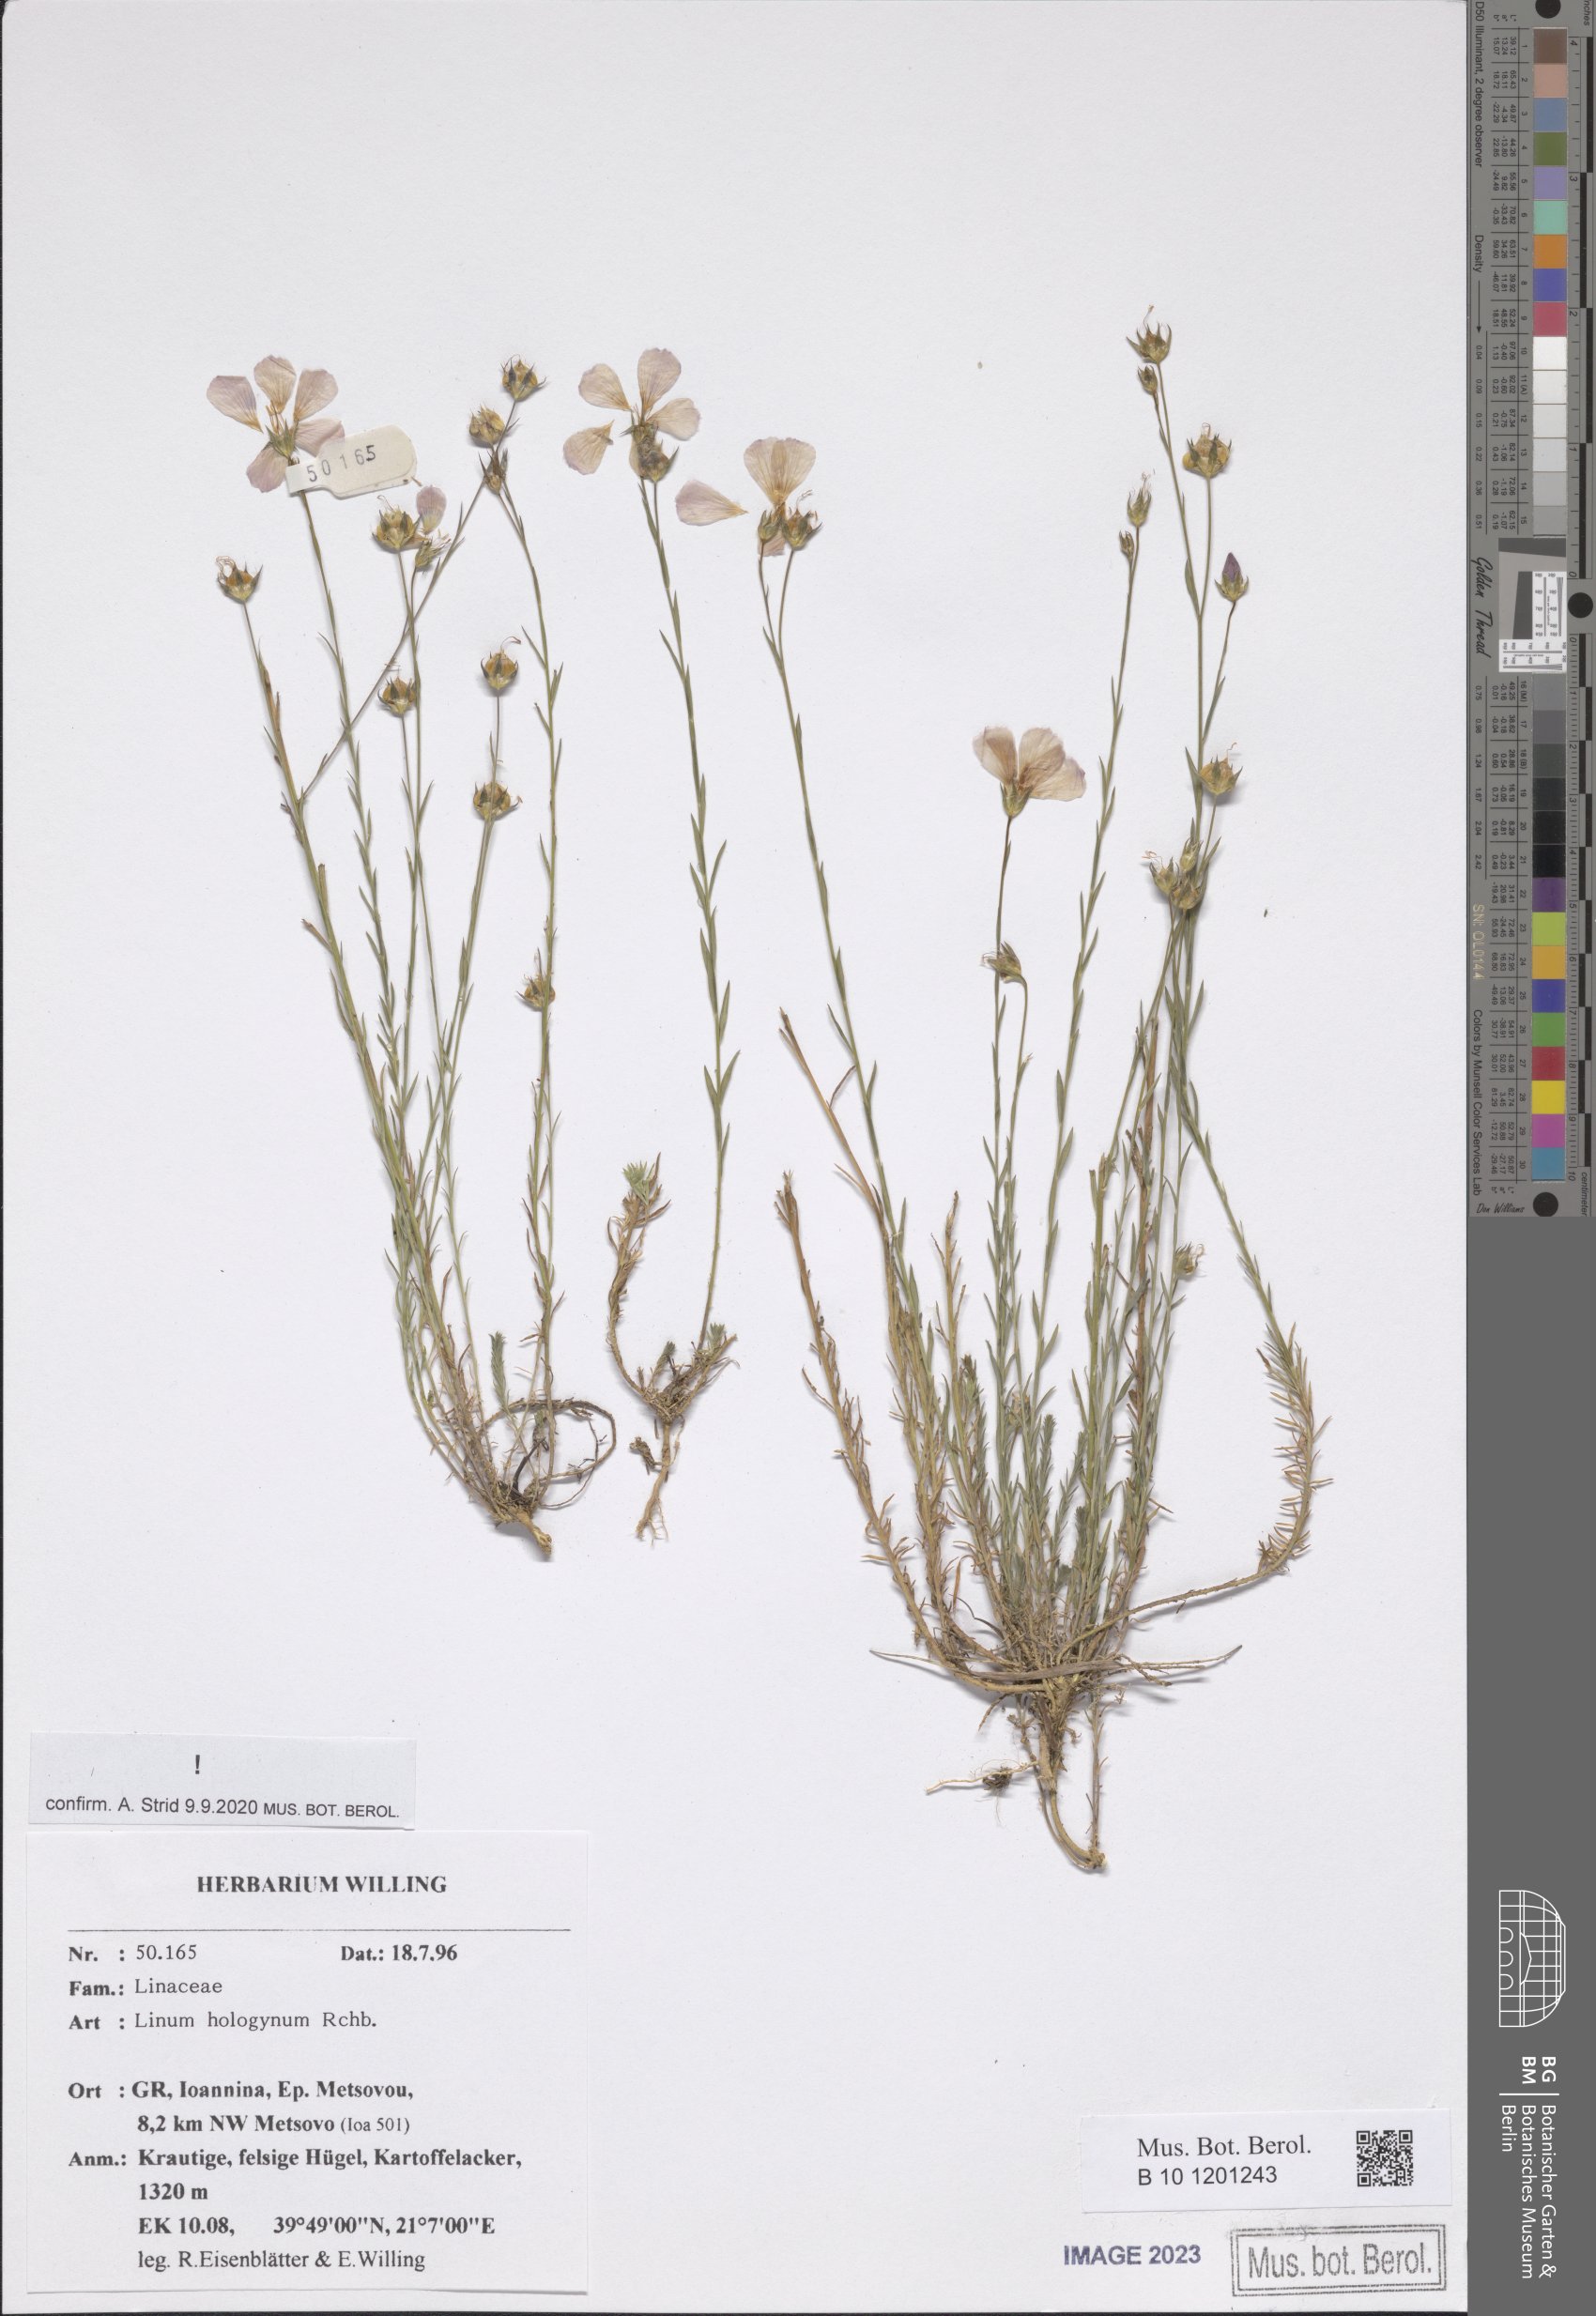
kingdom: Plantae
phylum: Tracheophyta
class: Magnoliopsida
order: Malpighiales
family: Linaceae
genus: Linum
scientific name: Linum hologynum
